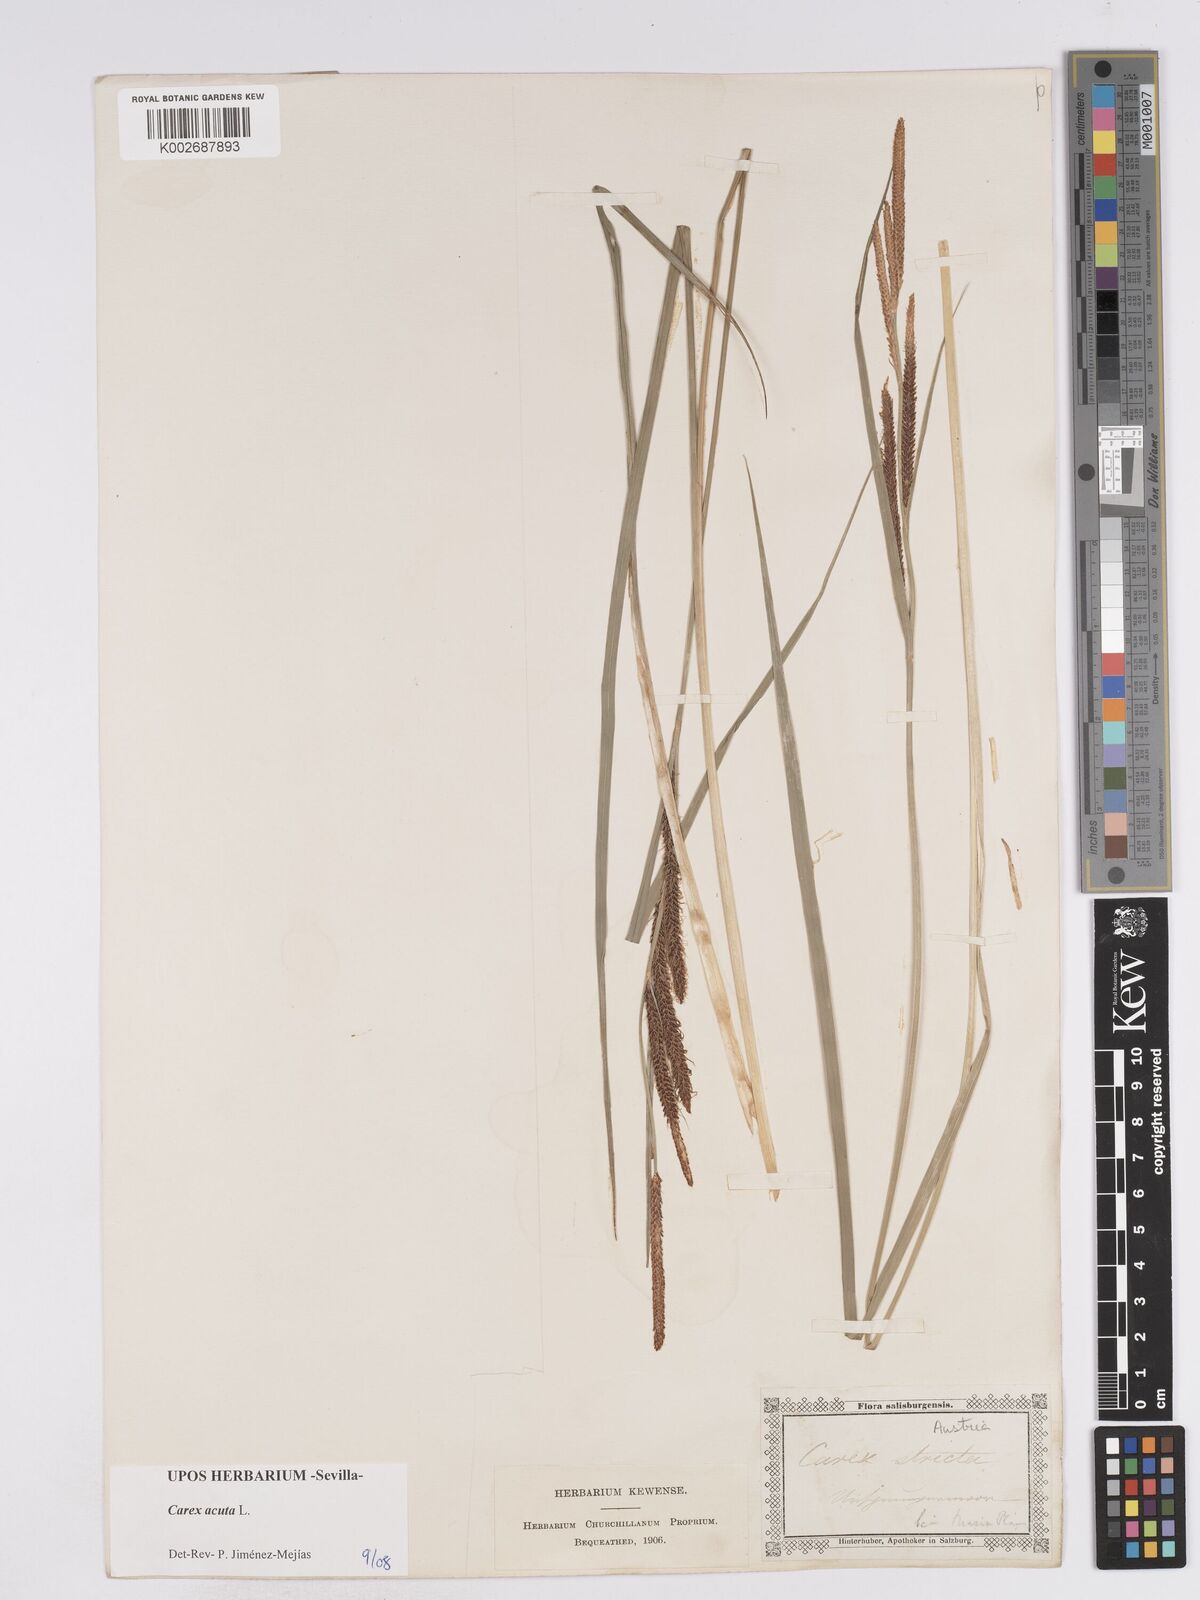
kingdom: Plantae
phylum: Tracheophyta
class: Liliopsida
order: Poales
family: Cyperaceae
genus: Carex
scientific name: Carex acuta
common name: Slender tufted-sedge
